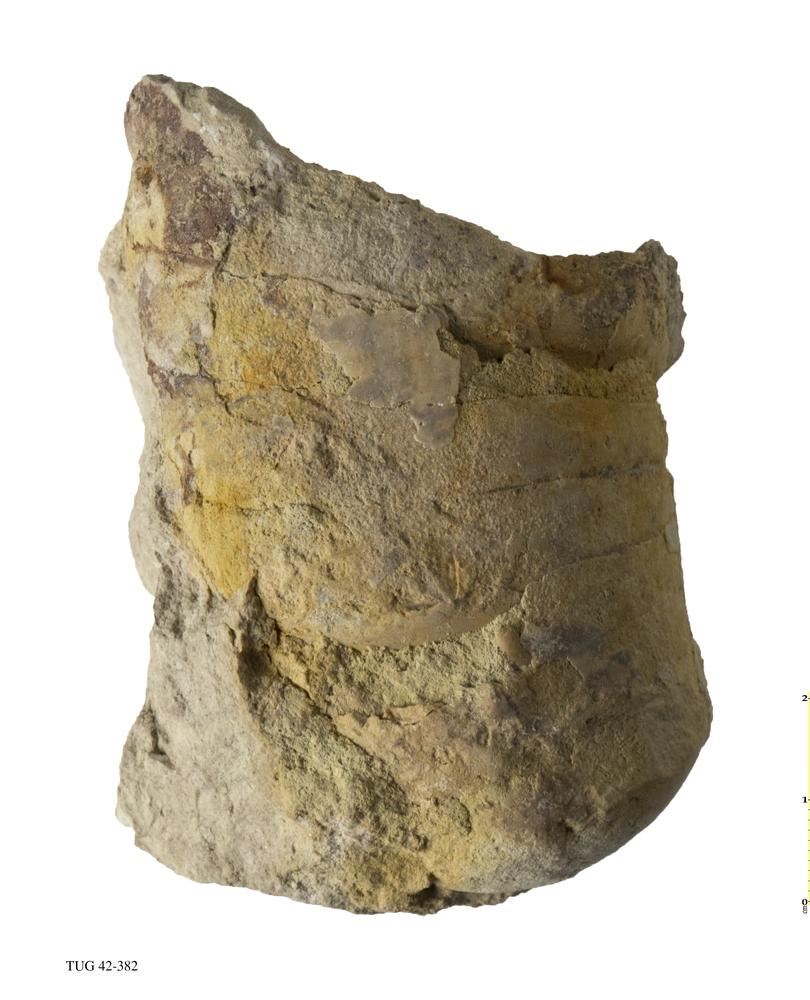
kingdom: Animalia
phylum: Mollusca
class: Cephalopoda
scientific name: Cephalopoda
